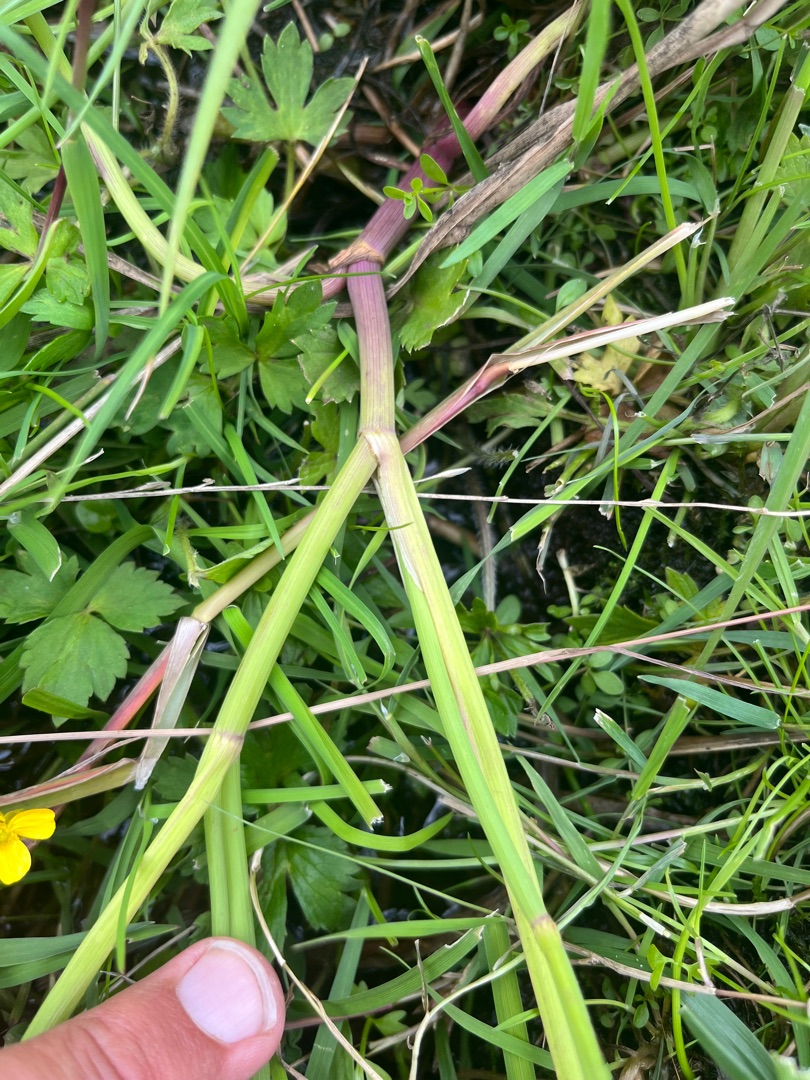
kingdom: Plantae
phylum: Tracheophyta
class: Magnoliopsida
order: Apiales
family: Apiaceae
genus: Oenanthe
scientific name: Oenanthe fistulosa
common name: Vand-klaseskærm
